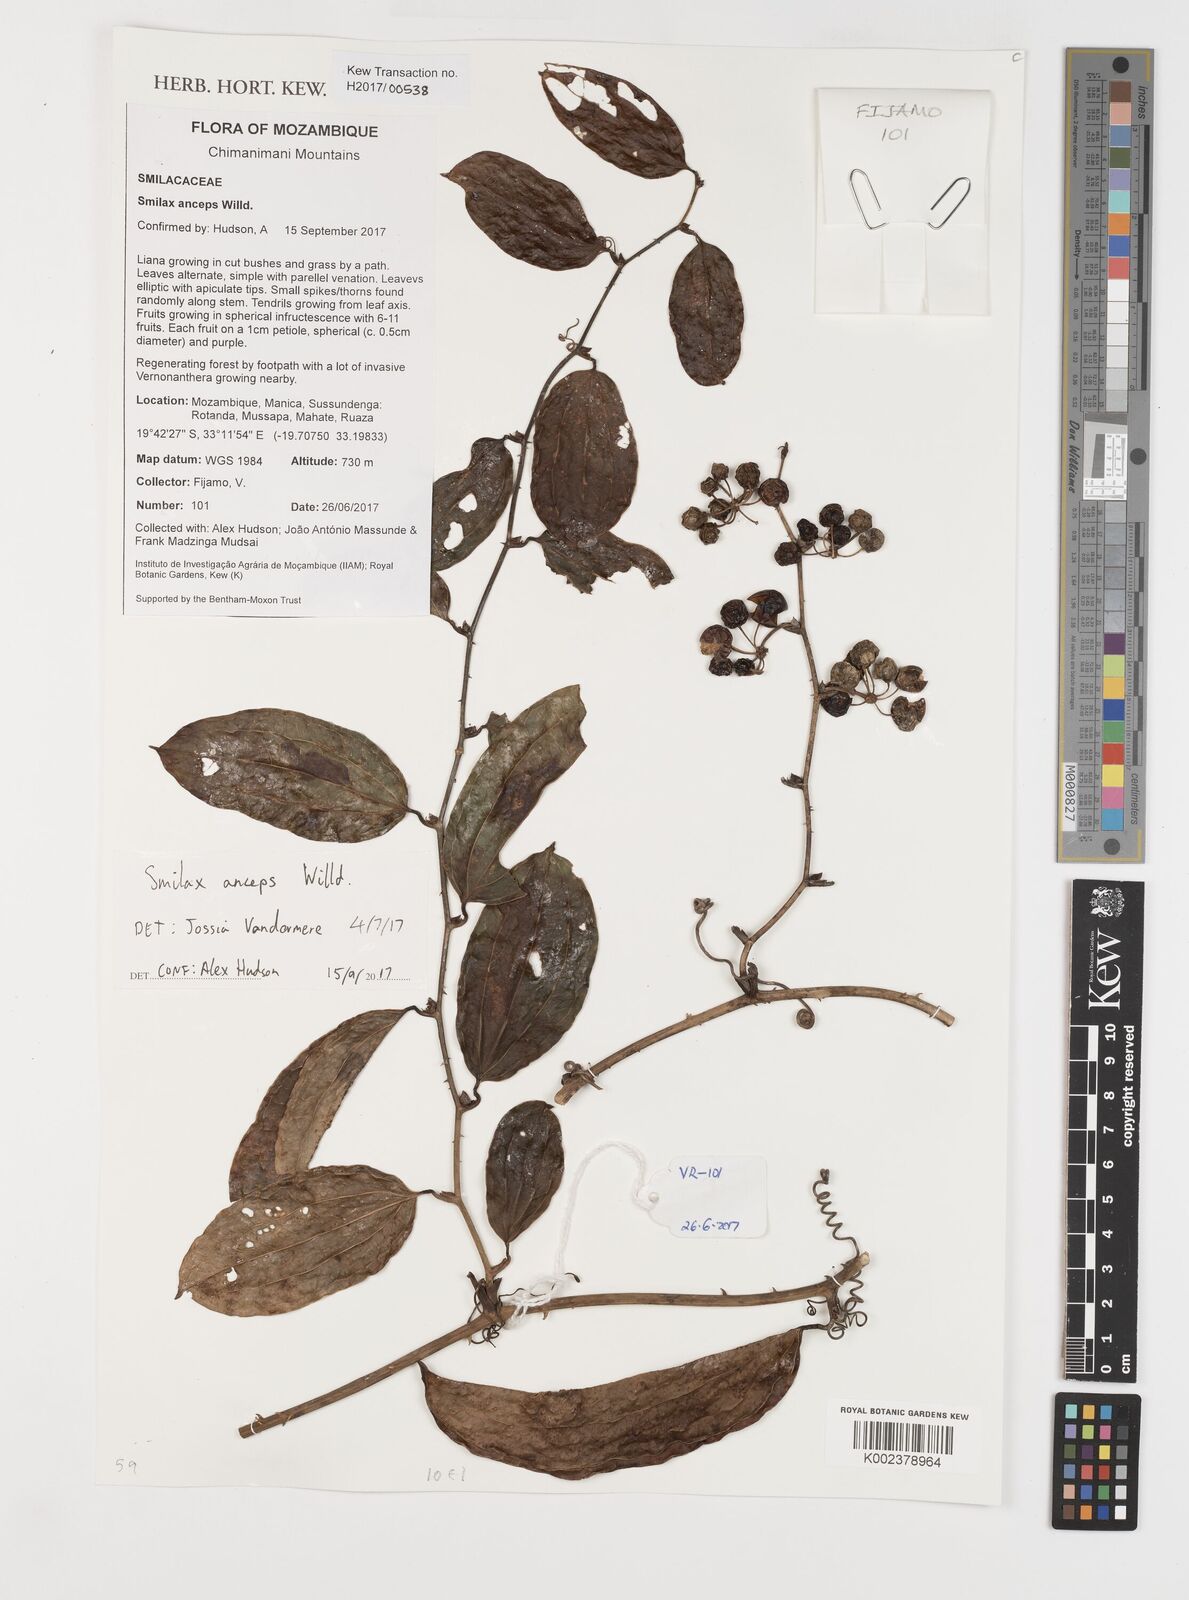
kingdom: Plantae
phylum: Tracheophyta
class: Liliopsida
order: Liliales
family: Smilacaceae
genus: Smilax
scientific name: Smilax anceps
